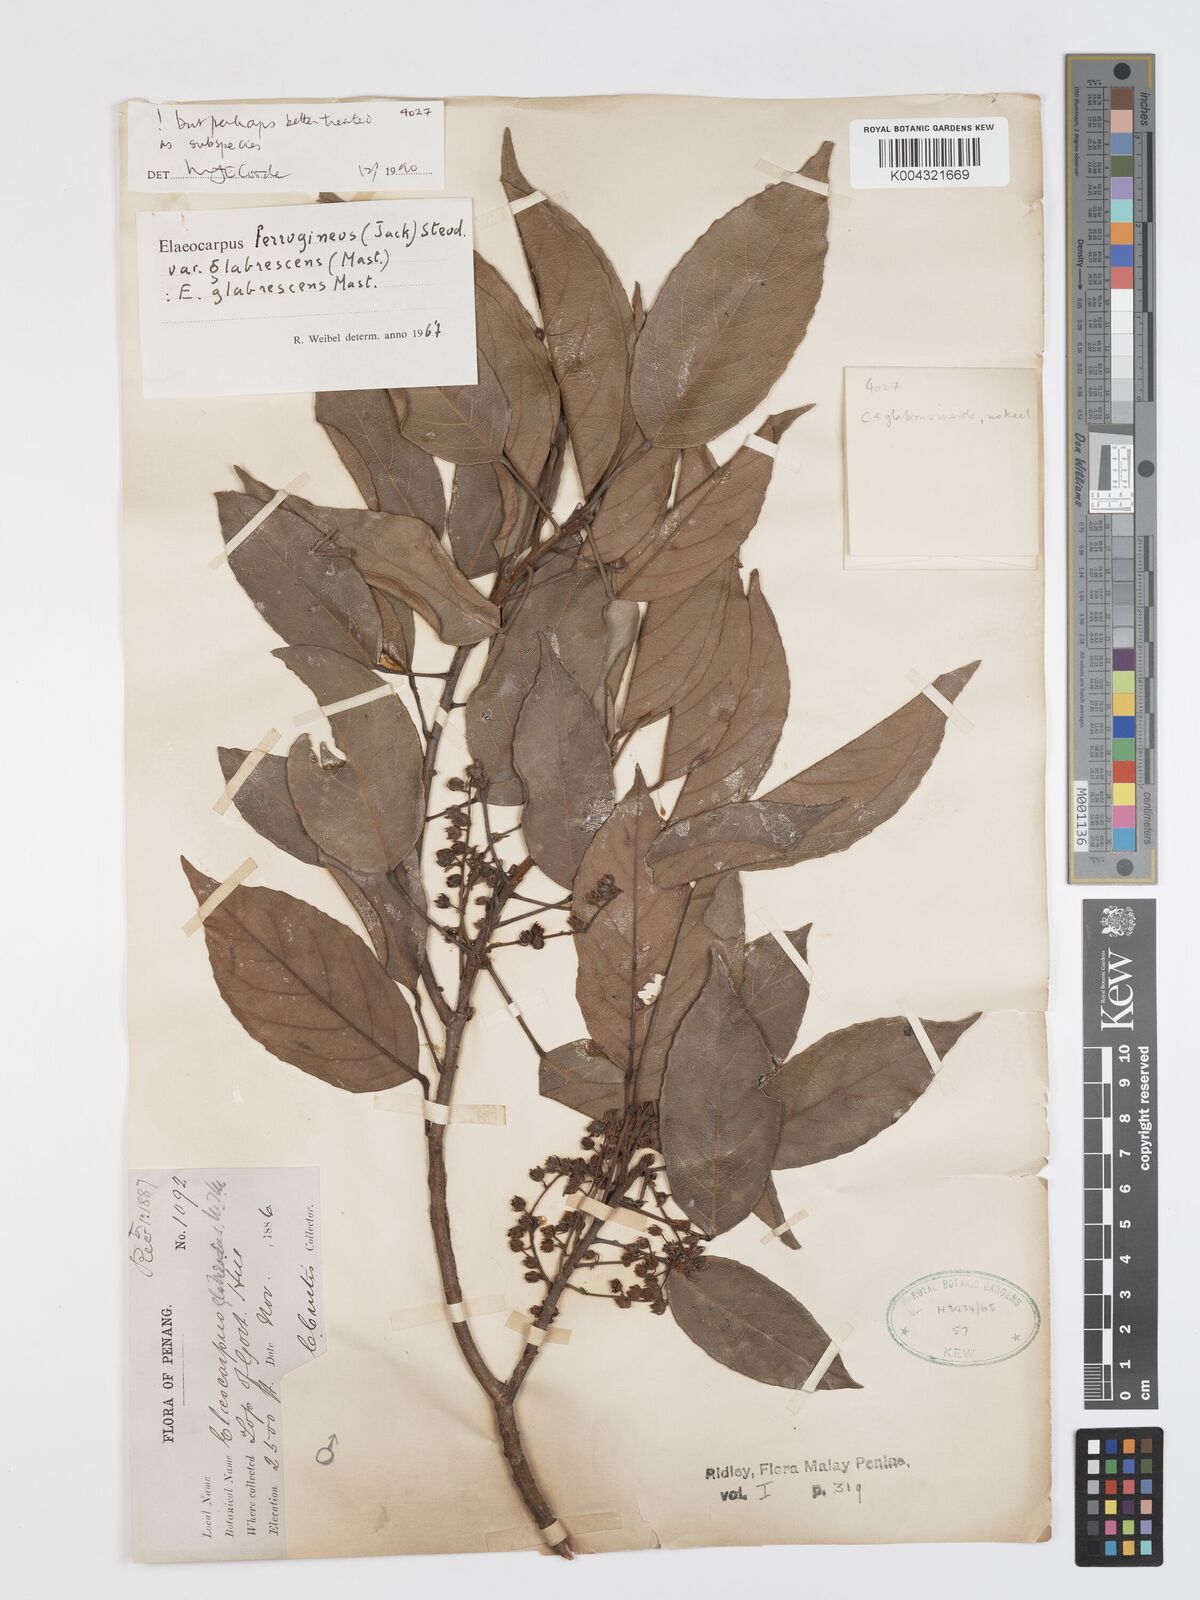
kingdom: Plantae
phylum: Tracheophyta
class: Magnoliopsida
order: Oxalidales
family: Elaeocarpaceae
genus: Elaeocarpus
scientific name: Elaeocarpus ferrugineus
